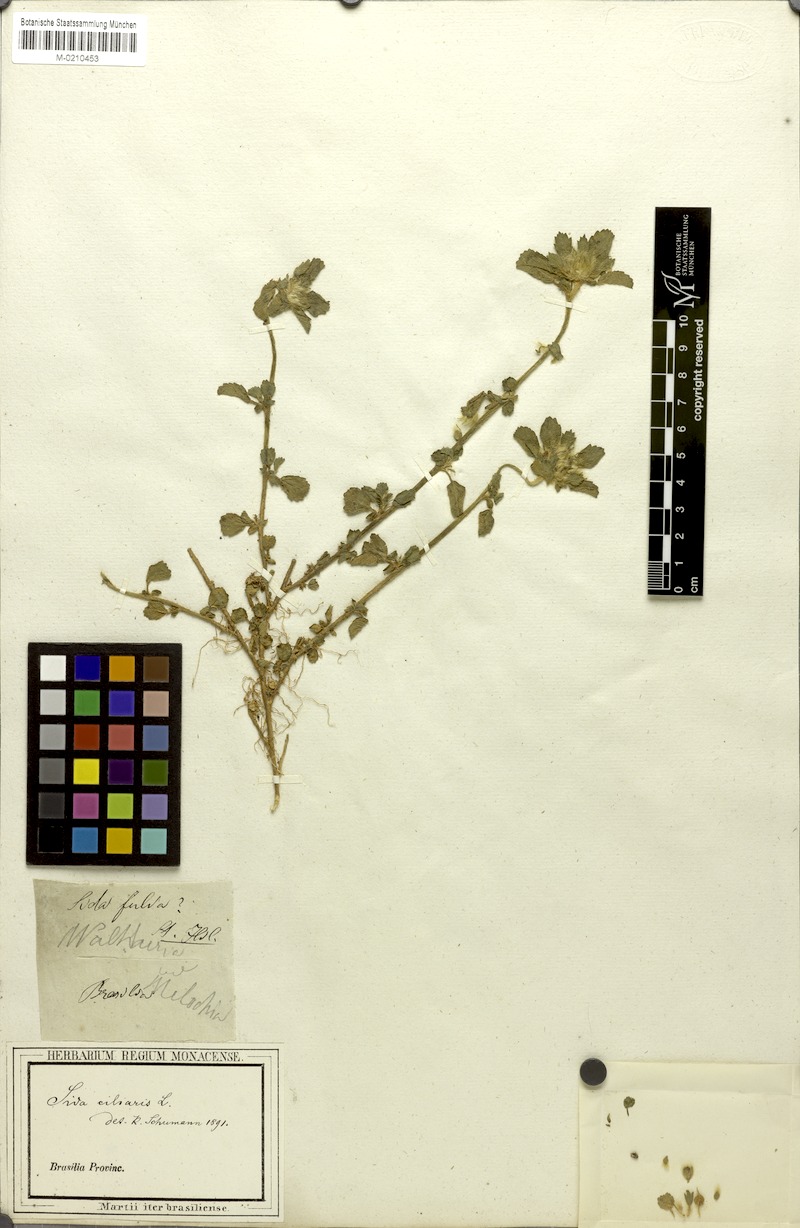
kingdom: Plantae
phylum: Tracheophyta
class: Magnoliopsida
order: Malvales
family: Malvaceae
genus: Sida
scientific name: Sida ciliaris
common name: Bracted fanpetals
